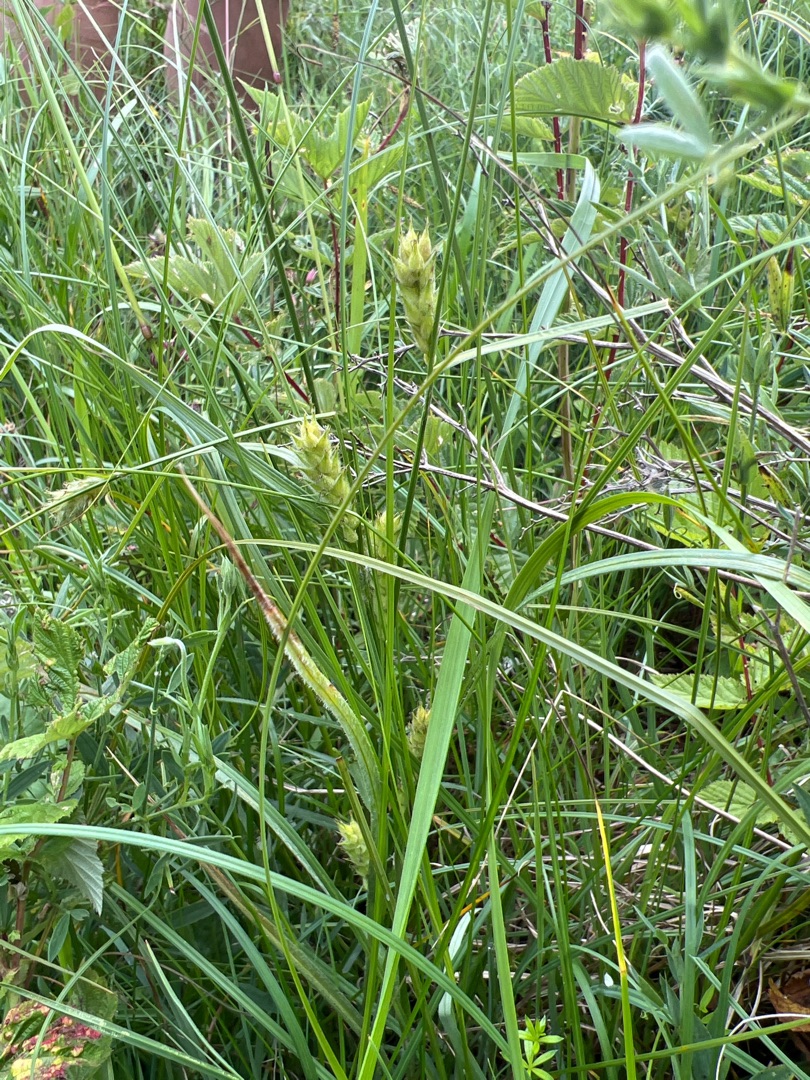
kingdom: Plantae
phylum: Tracheophyta
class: Liliopsida
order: Poales
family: Cyperaceae
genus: Carex
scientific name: Carex hirta
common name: Håret star
